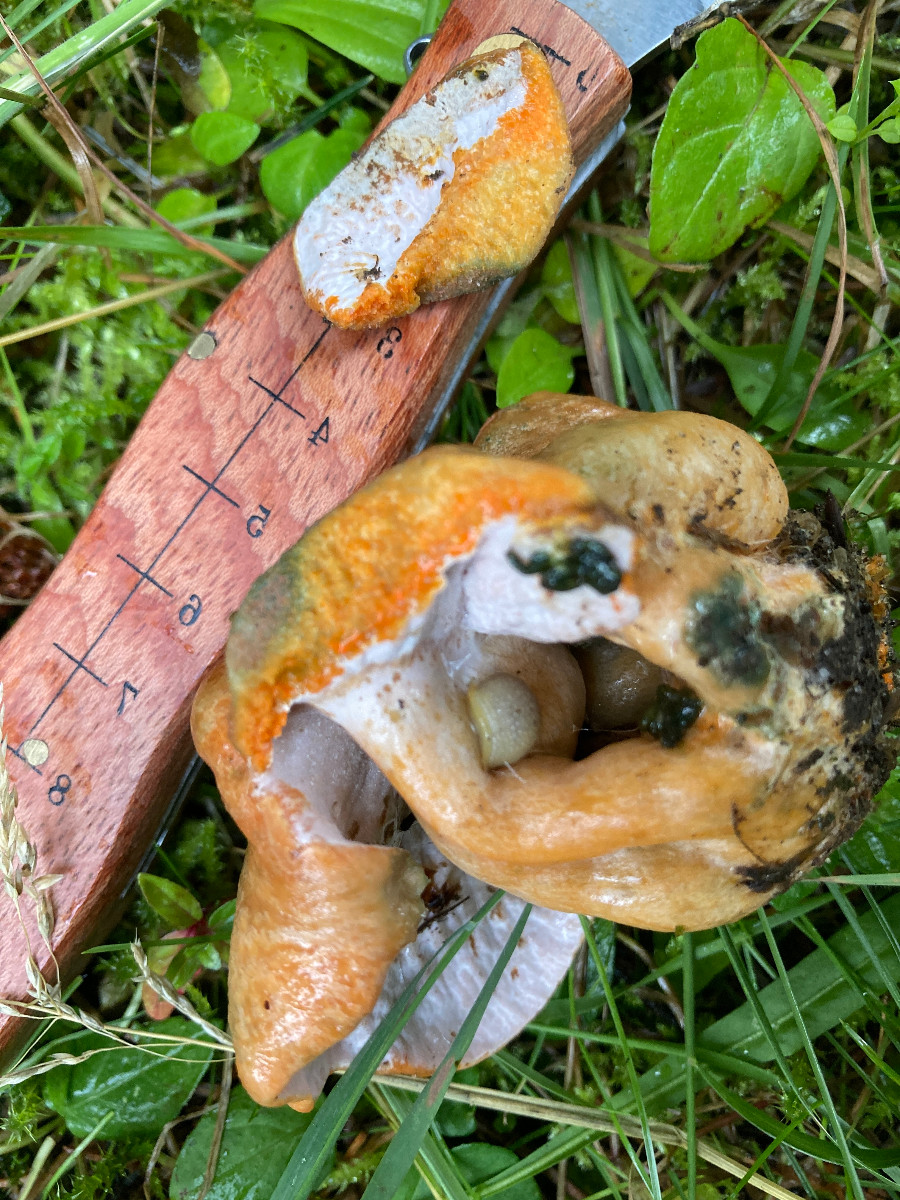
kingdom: Fungi
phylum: Ascomycota
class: Sordariomycetes
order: Hypocreales
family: Hypocreaceae
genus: Hypomyces
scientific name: Hypomyces lateritius
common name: mælkehat-snylteskorpe
